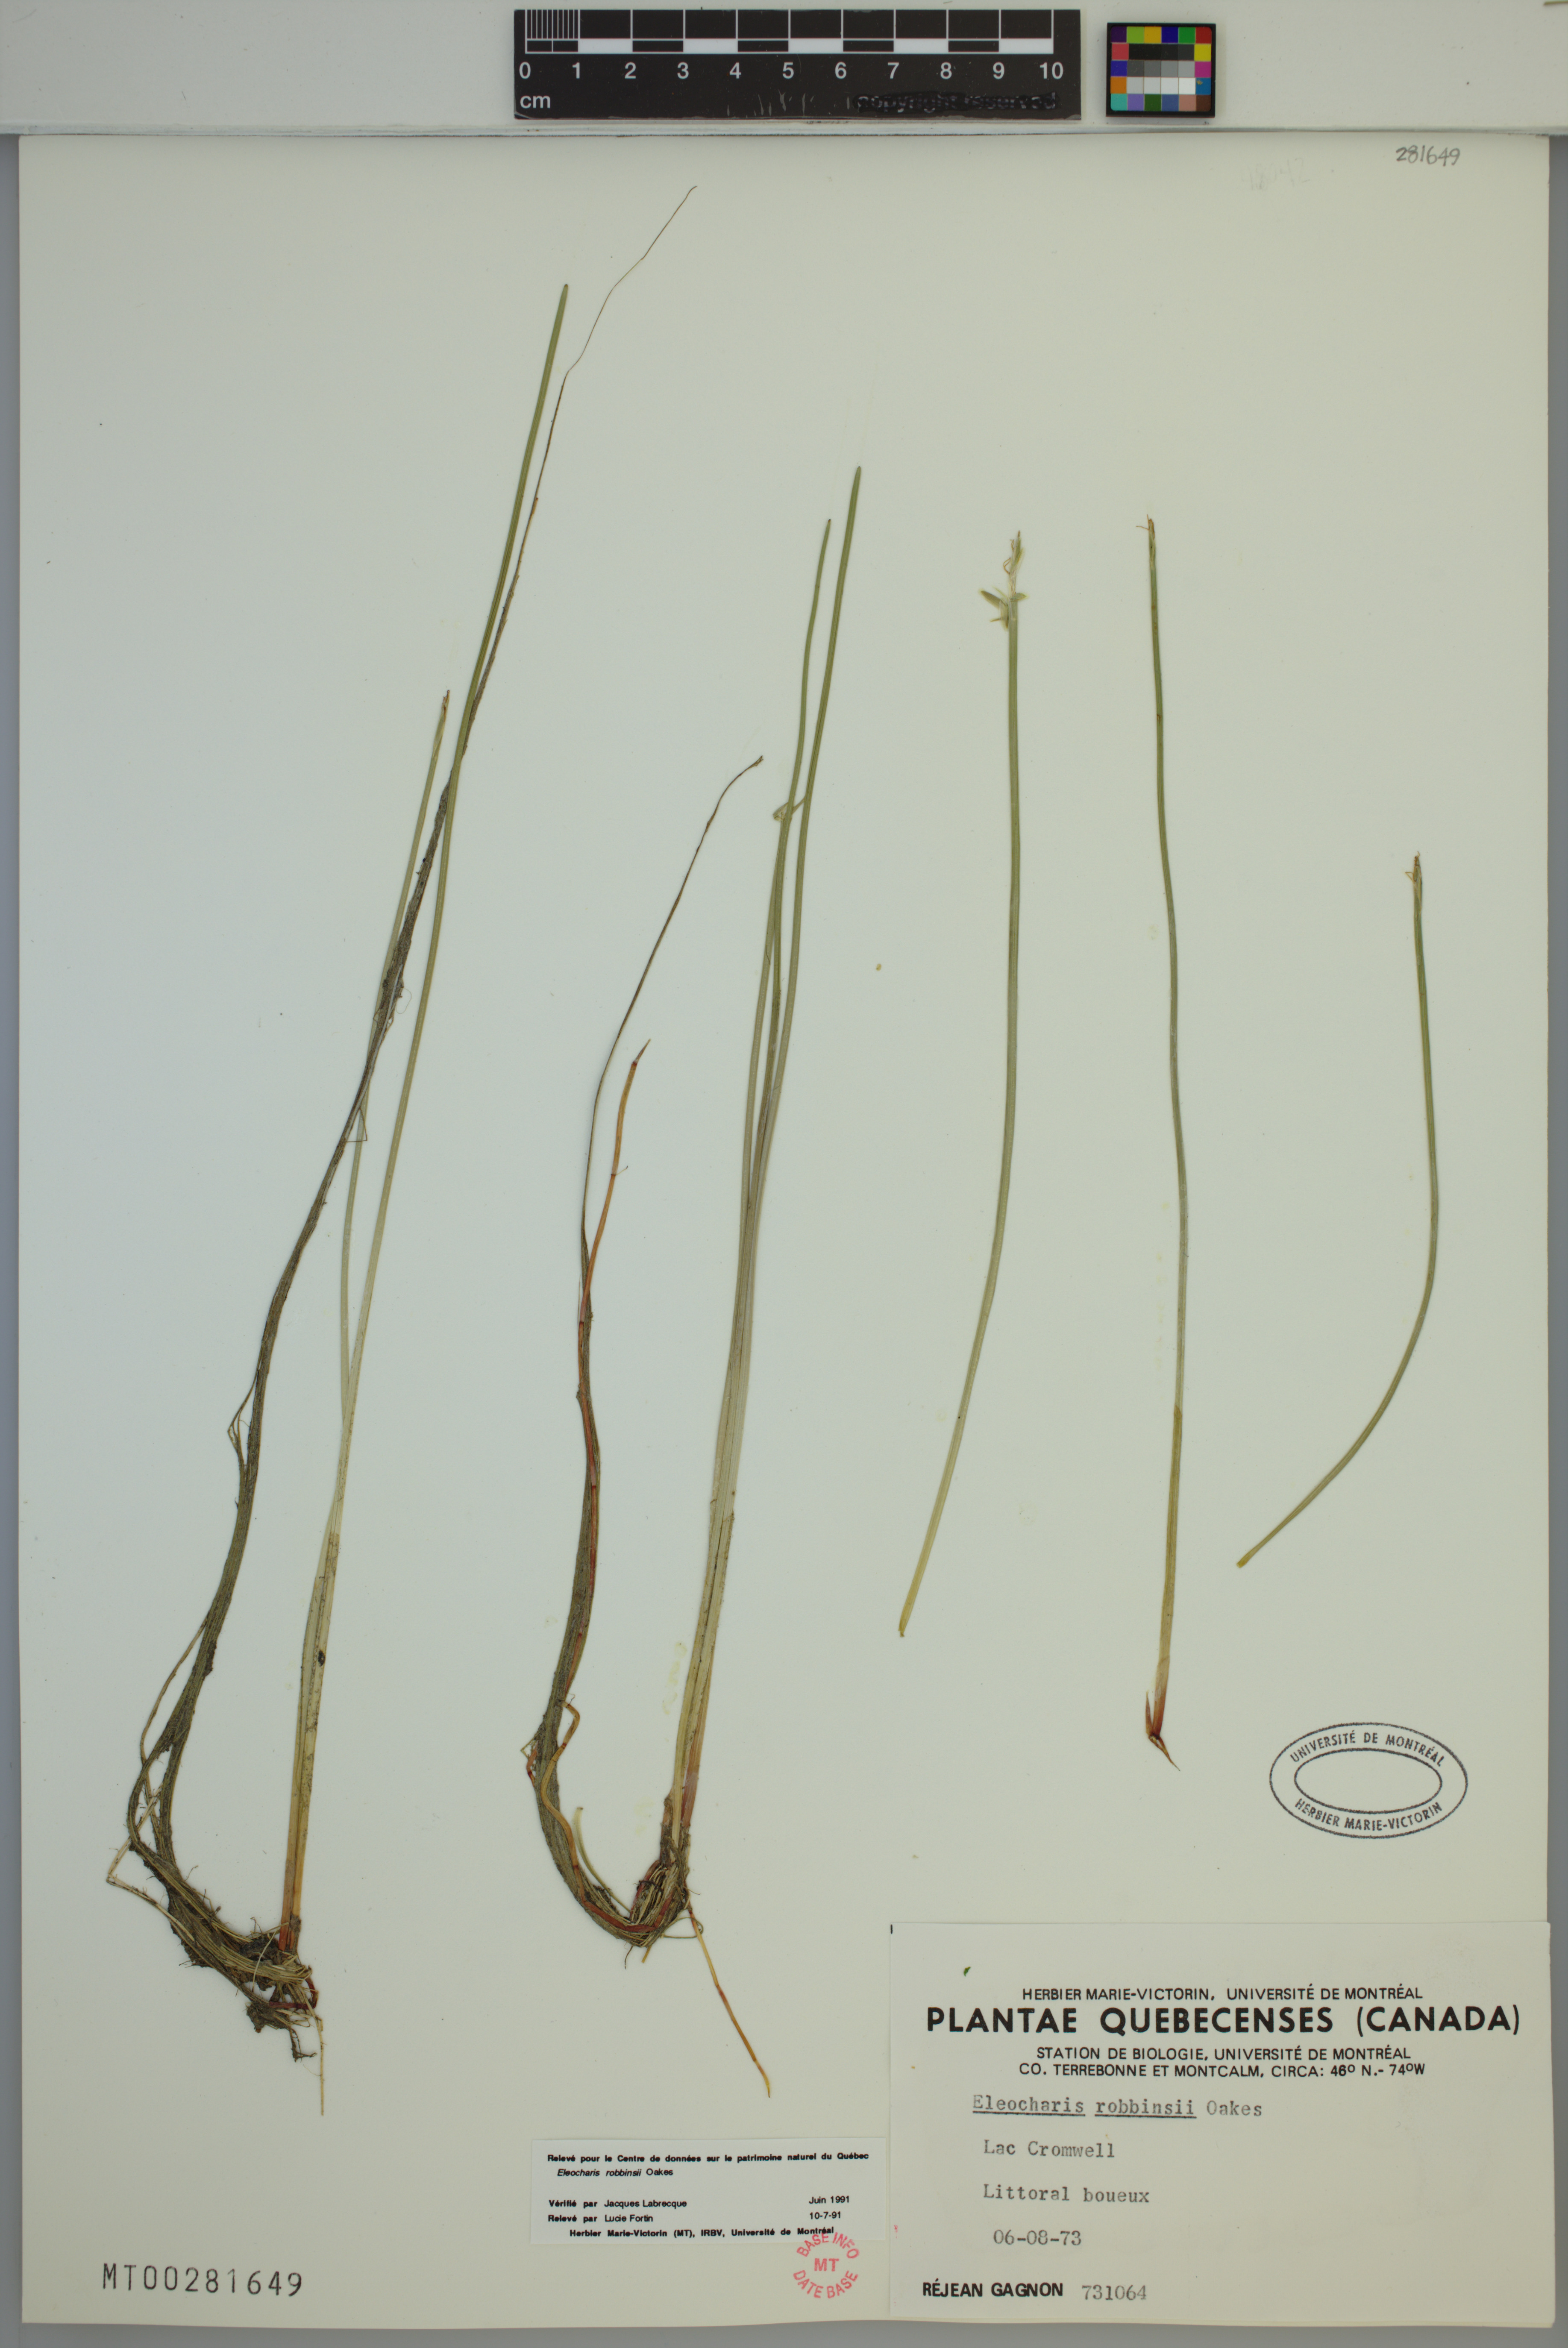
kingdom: Plantae
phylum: Tracheophyta
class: Liliopsida
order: Poales
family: Cyperaceae
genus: Eleocharis
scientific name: Eleocharis robbinsii
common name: Robbins' spikerush
